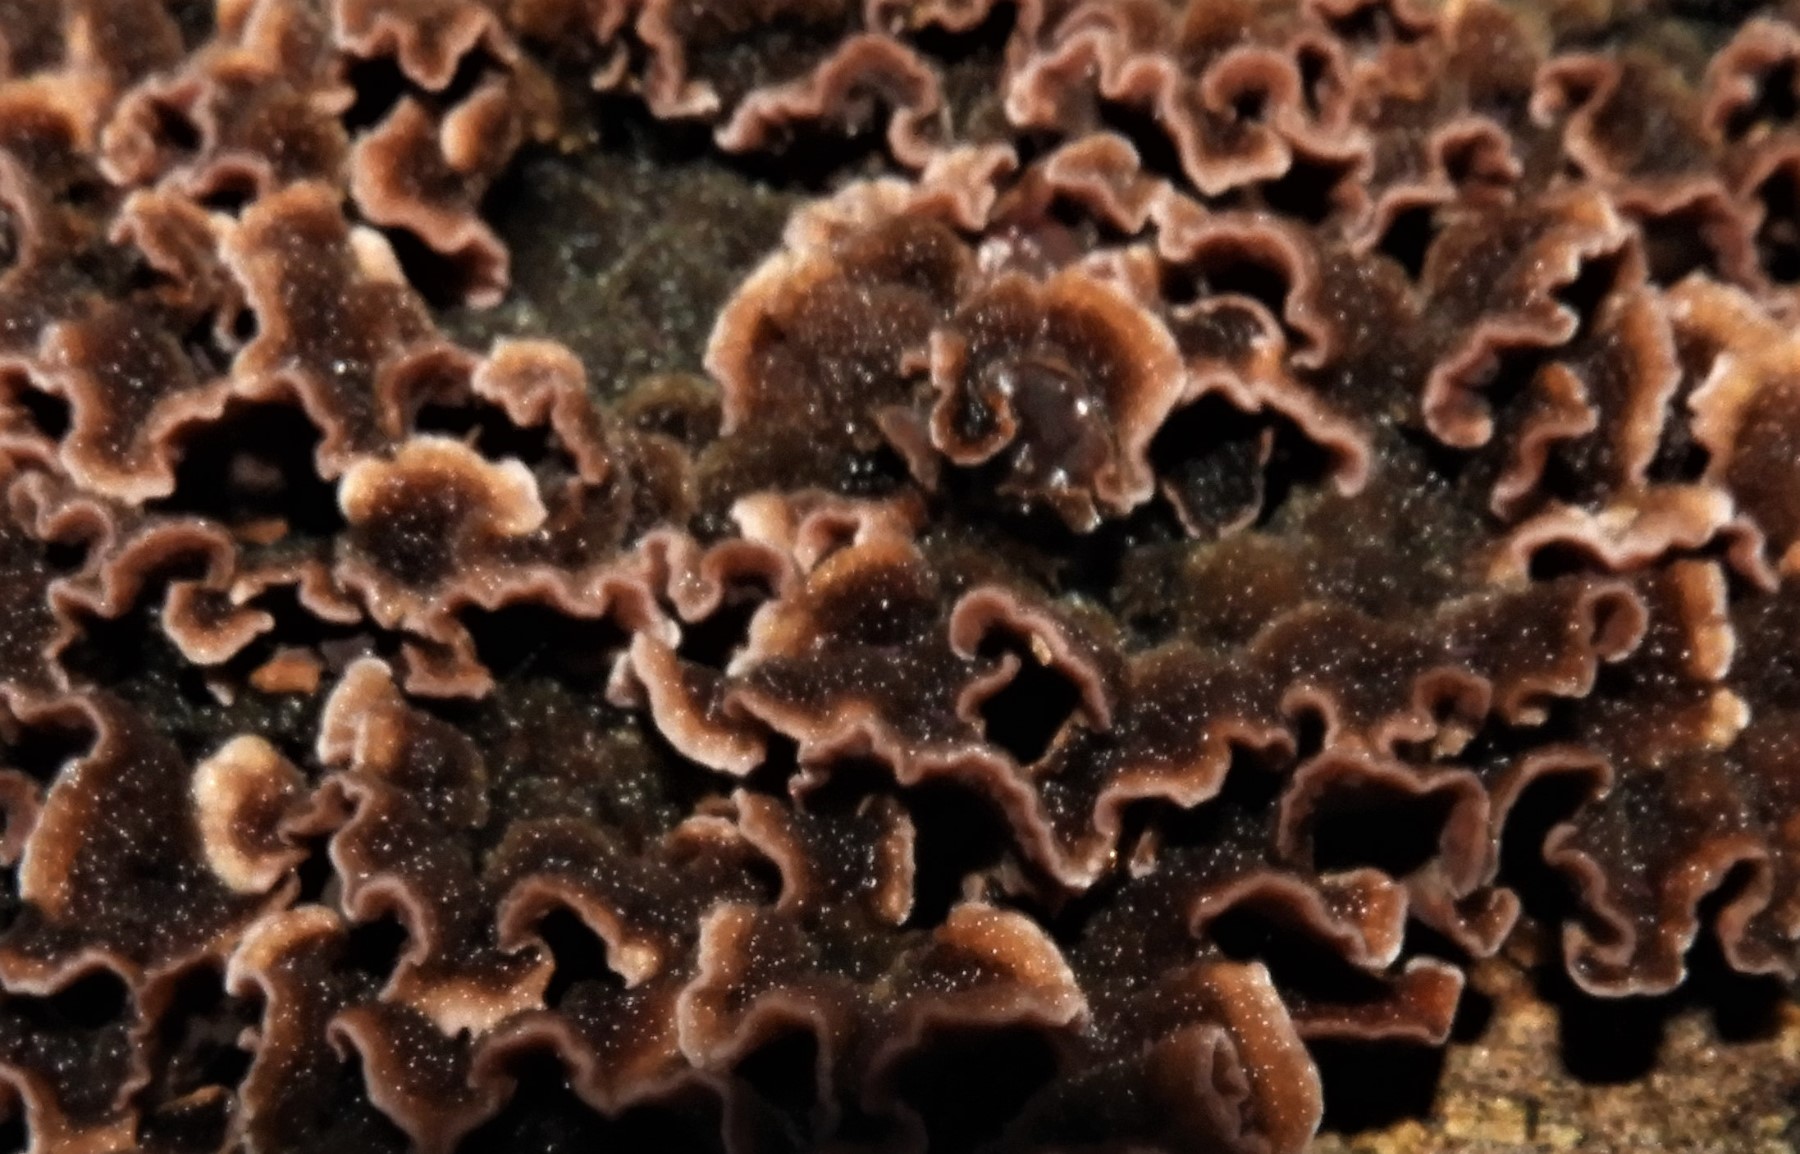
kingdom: Fungi
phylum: Basidiomycota
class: Agaricomycetes
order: Agaricales
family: Cyphellaceae
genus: Chondrostereum
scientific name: Chondrostereum purpureum
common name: purpurlædersvamp
